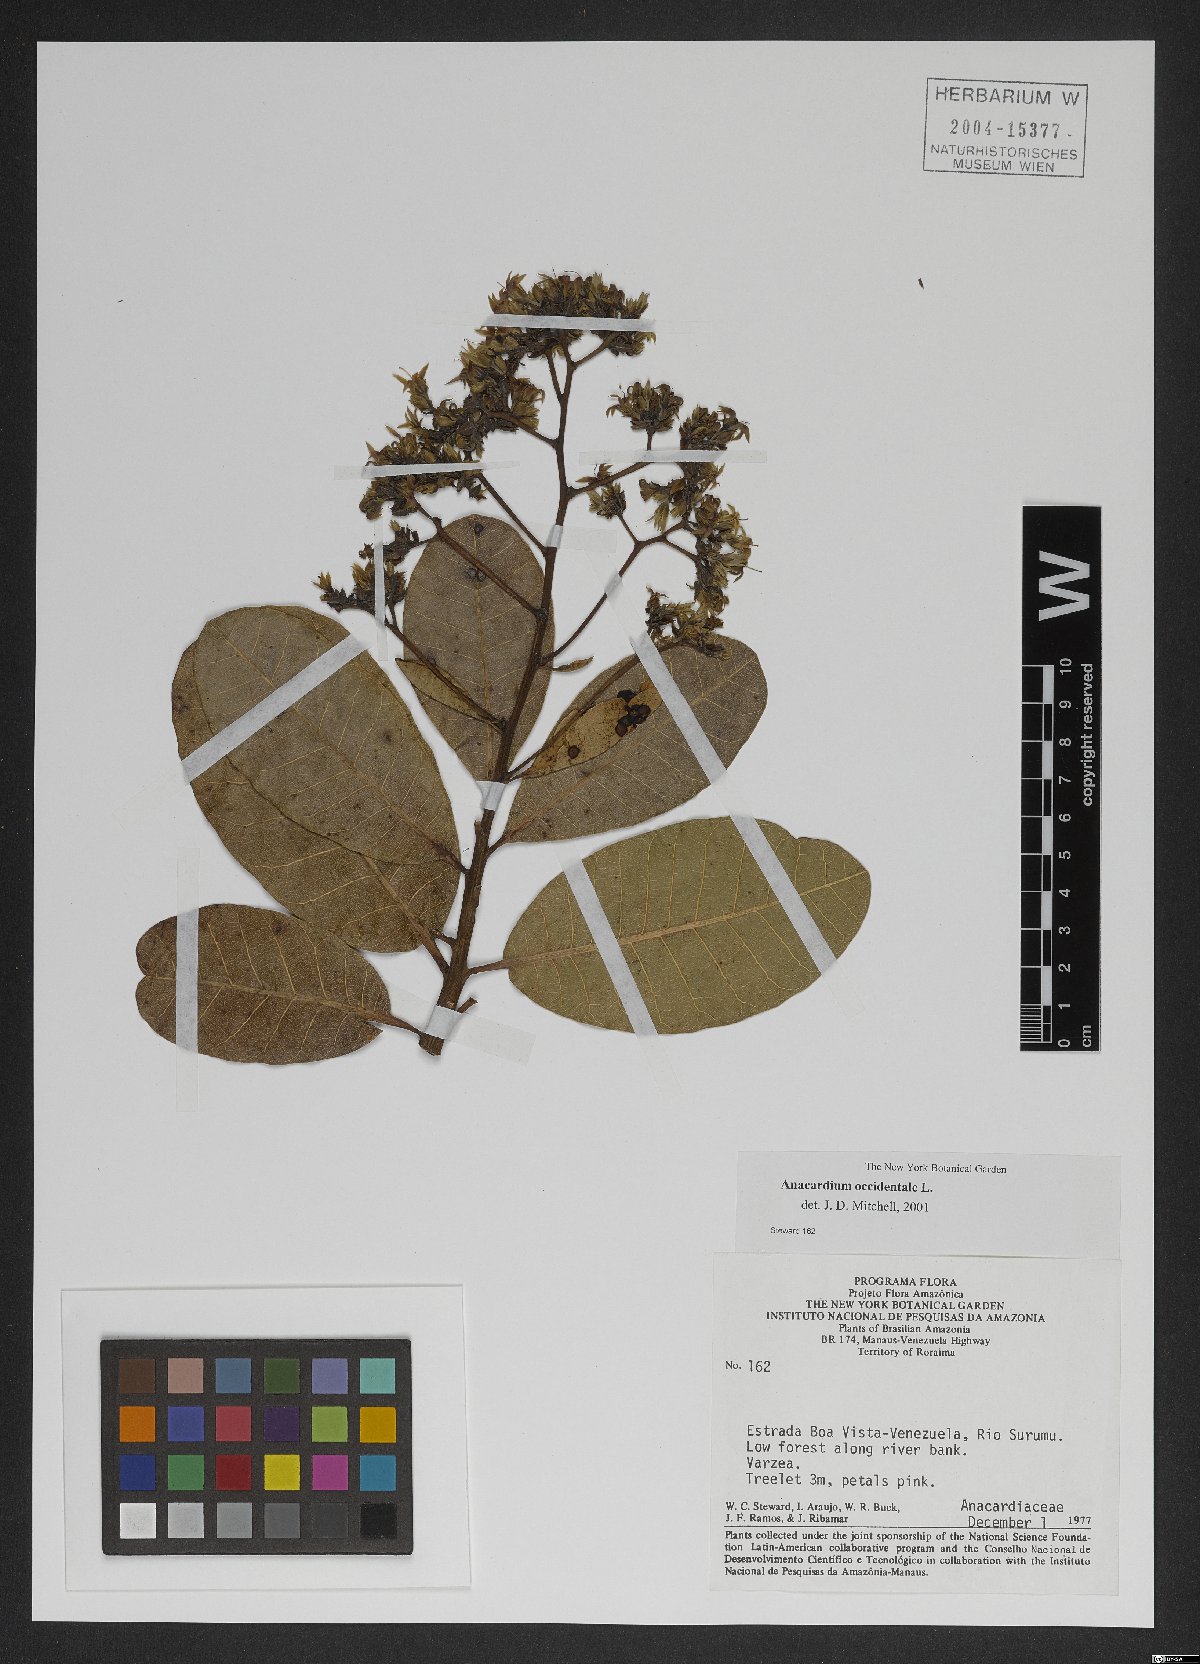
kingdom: Plantae
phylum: Tracheophyta
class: Magnoliopsida
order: Sapindales
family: Anacardiaceae
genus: Anacardium
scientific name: Anacardium occidentale
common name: Cashew
